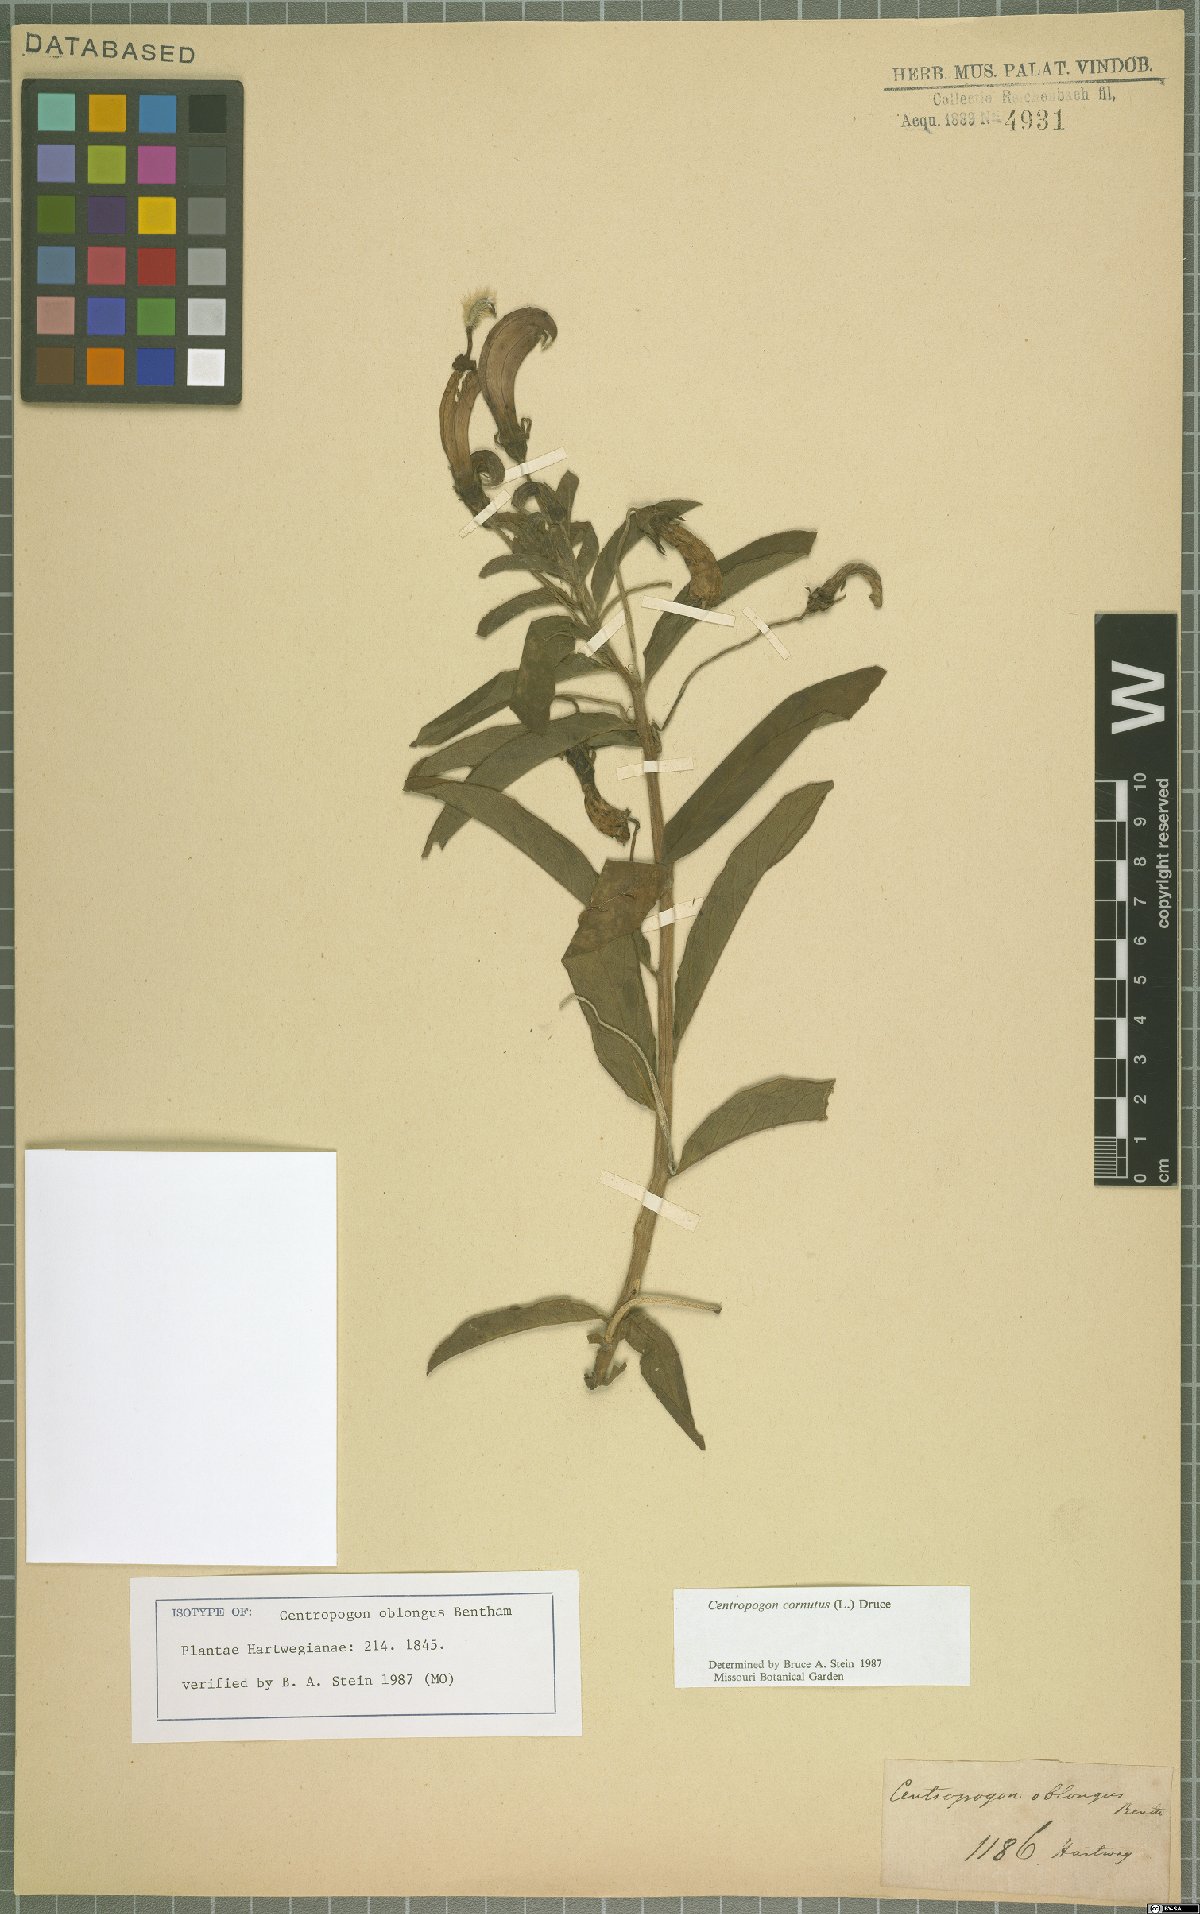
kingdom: Plantae
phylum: Tracheophyta
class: Magnoliopsida
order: Asterales
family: Campanulaceae
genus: Centropogon
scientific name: Centropogon cornutus
